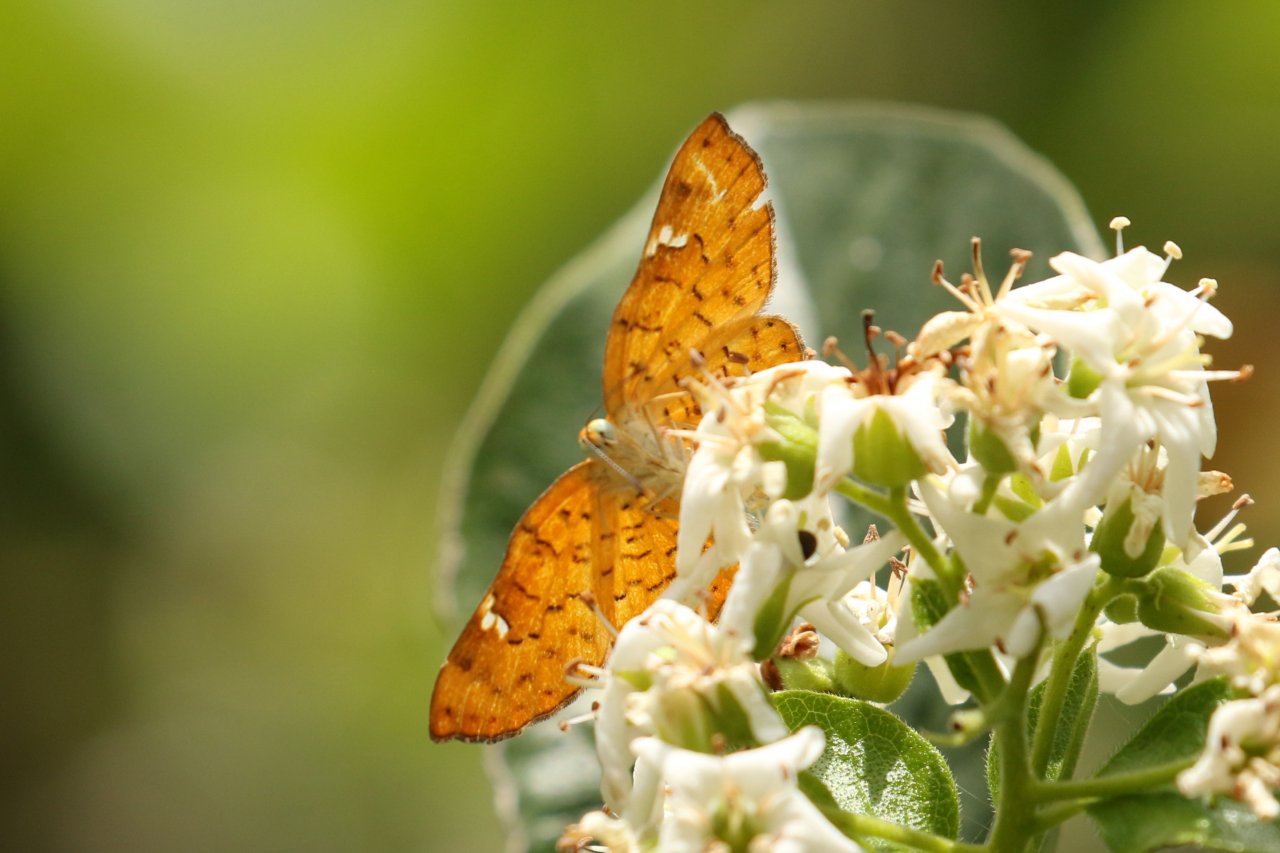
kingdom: Animalia
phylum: Arthropoda
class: Insecta
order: Lepidoptera
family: Lycaenidae
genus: Emesis
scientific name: Emesis emesia
